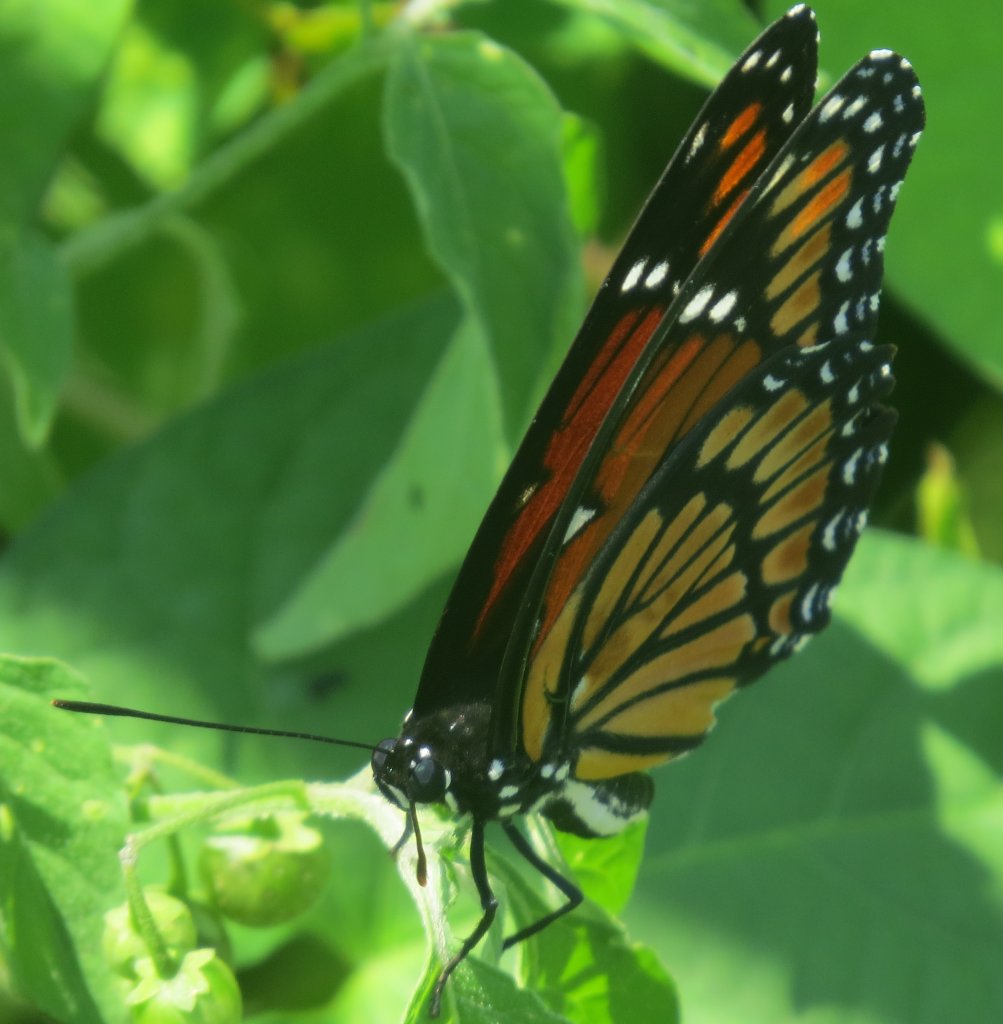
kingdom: Animalia
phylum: Arthropoda
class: Insecta
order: Lepidoptera
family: Nymphalidae
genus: Limenitis
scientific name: Limenitis archippus
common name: Viceroy
